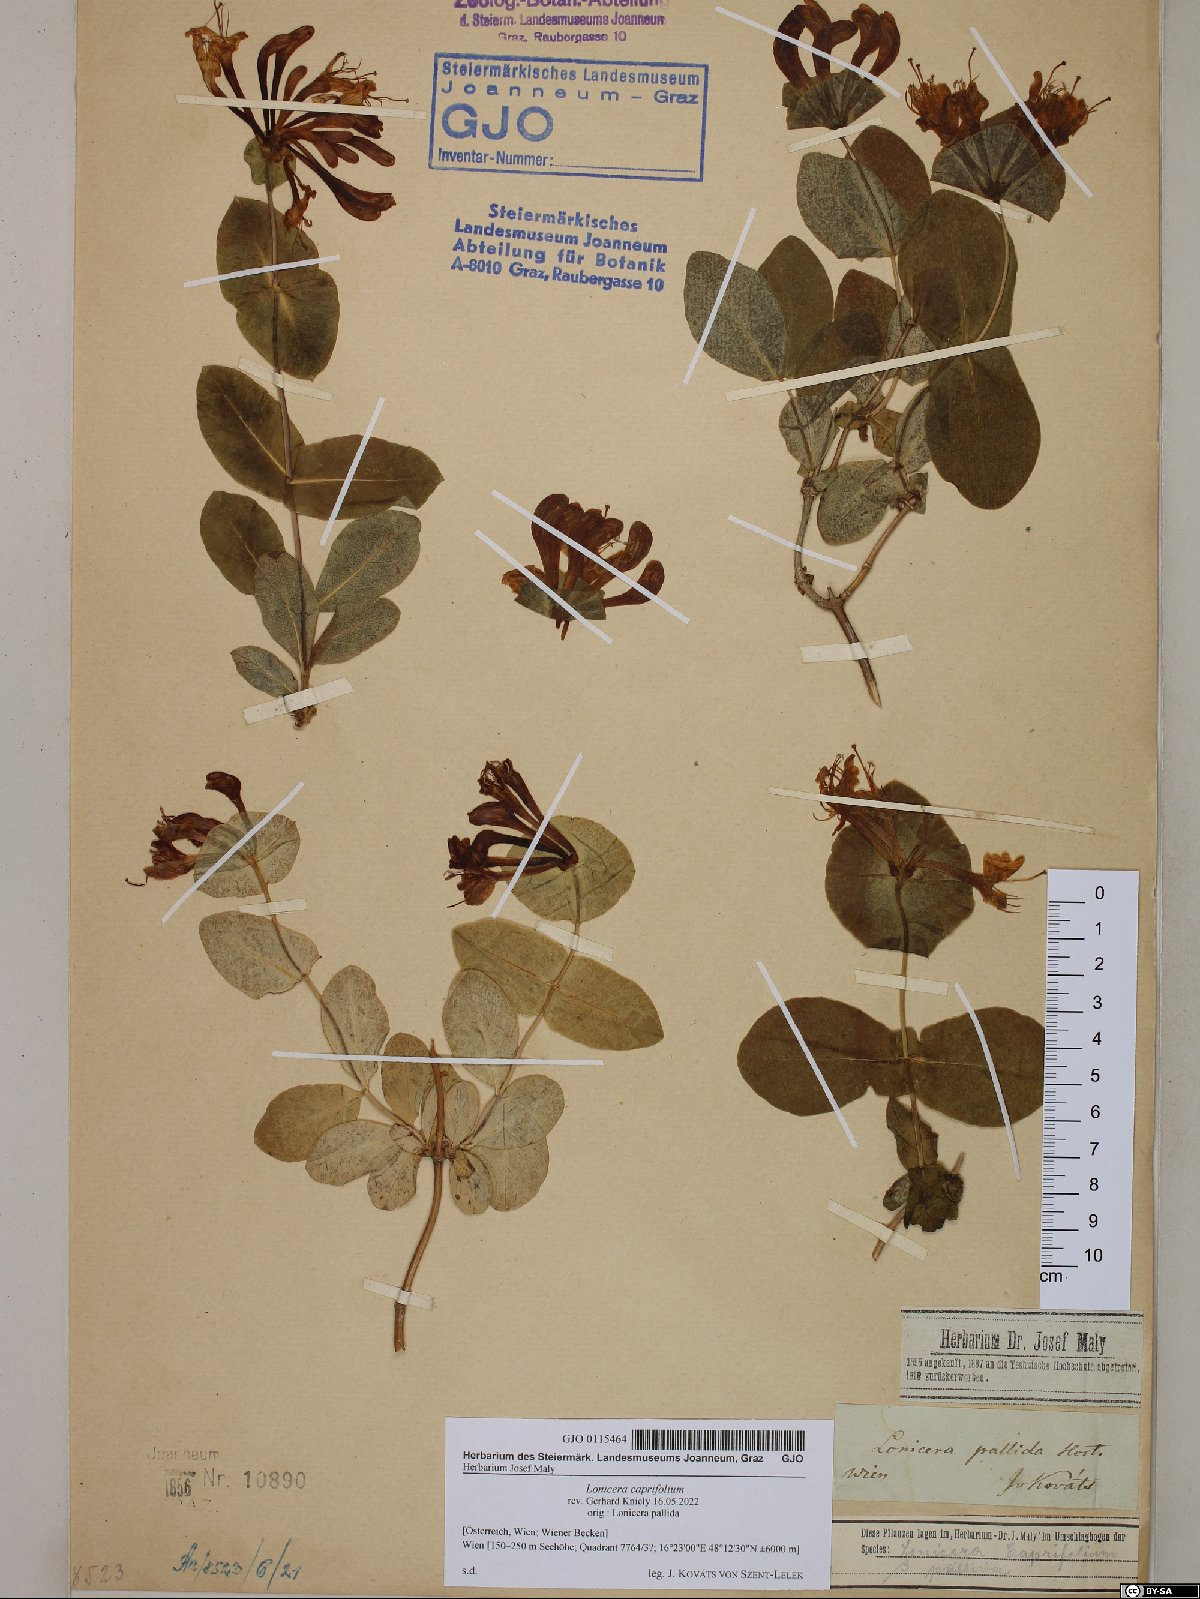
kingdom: Plantae
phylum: Tracheophyta
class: Magnoliopsida
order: Dipsacales
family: Caprifoliaceae
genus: Lonicera
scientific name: Lonicera caprifolium
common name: Perfoliate honeysuckle
